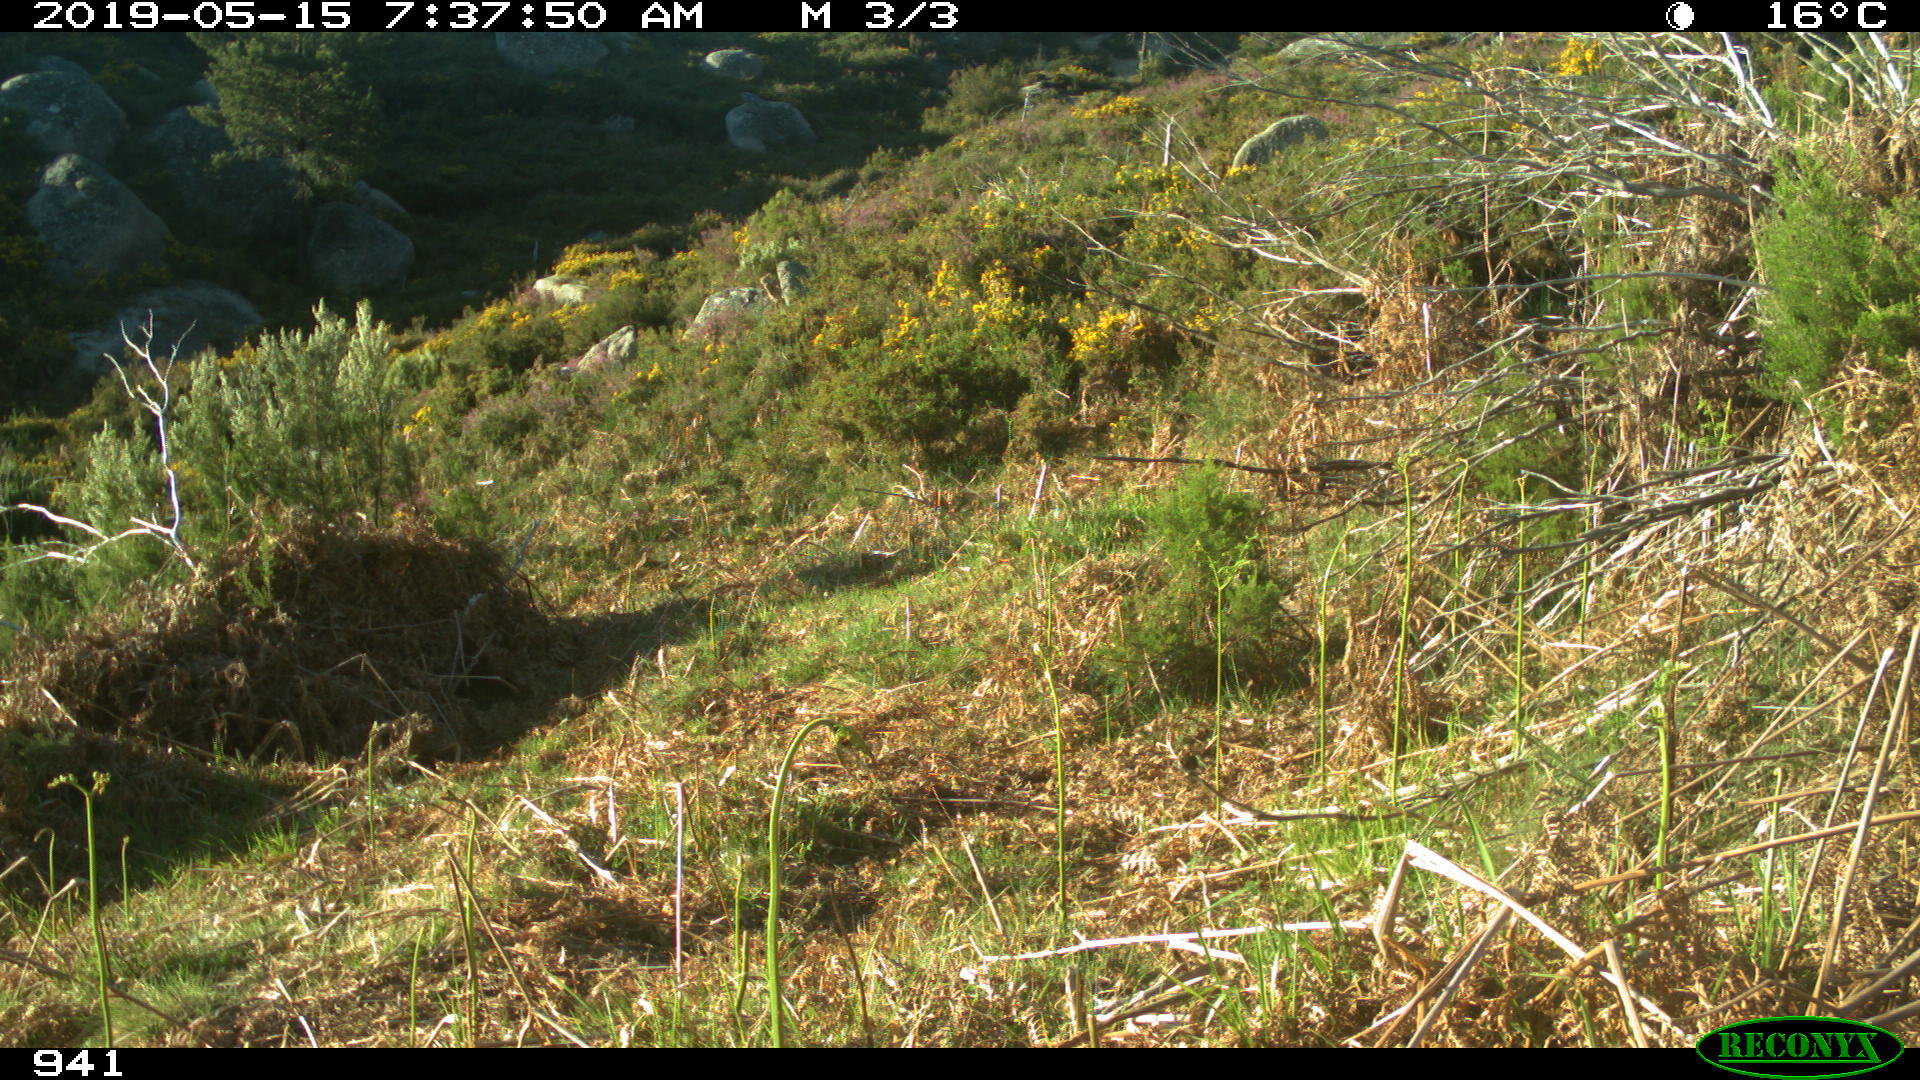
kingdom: Animalia
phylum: Chordata
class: Mammalia
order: Carnivora
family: Canidae
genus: Vulpes
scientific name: Vulpes vulpes
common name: Red fox
